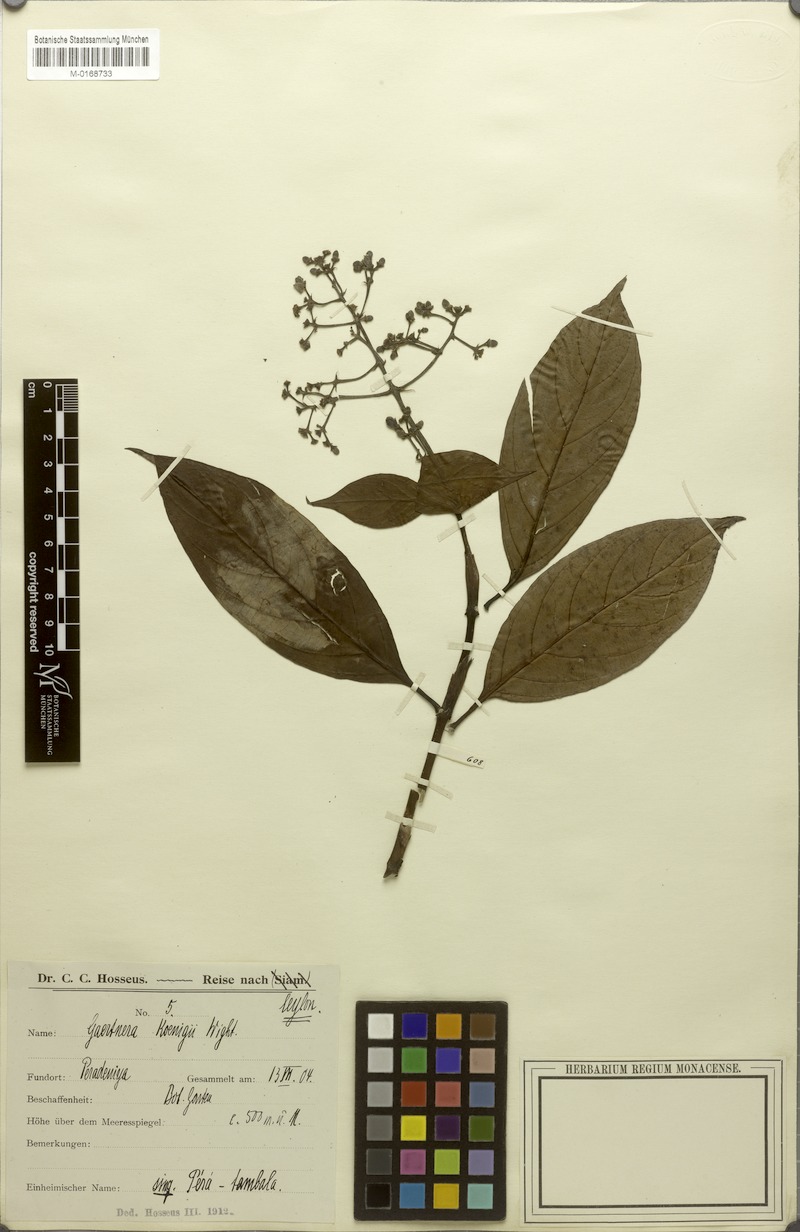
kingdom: Plantae
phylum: Tracheophyta
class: Magnoliopsida
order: Gentianales
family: Rubiaceae
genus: Gaertnera
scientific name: Gaertnera vaginans
